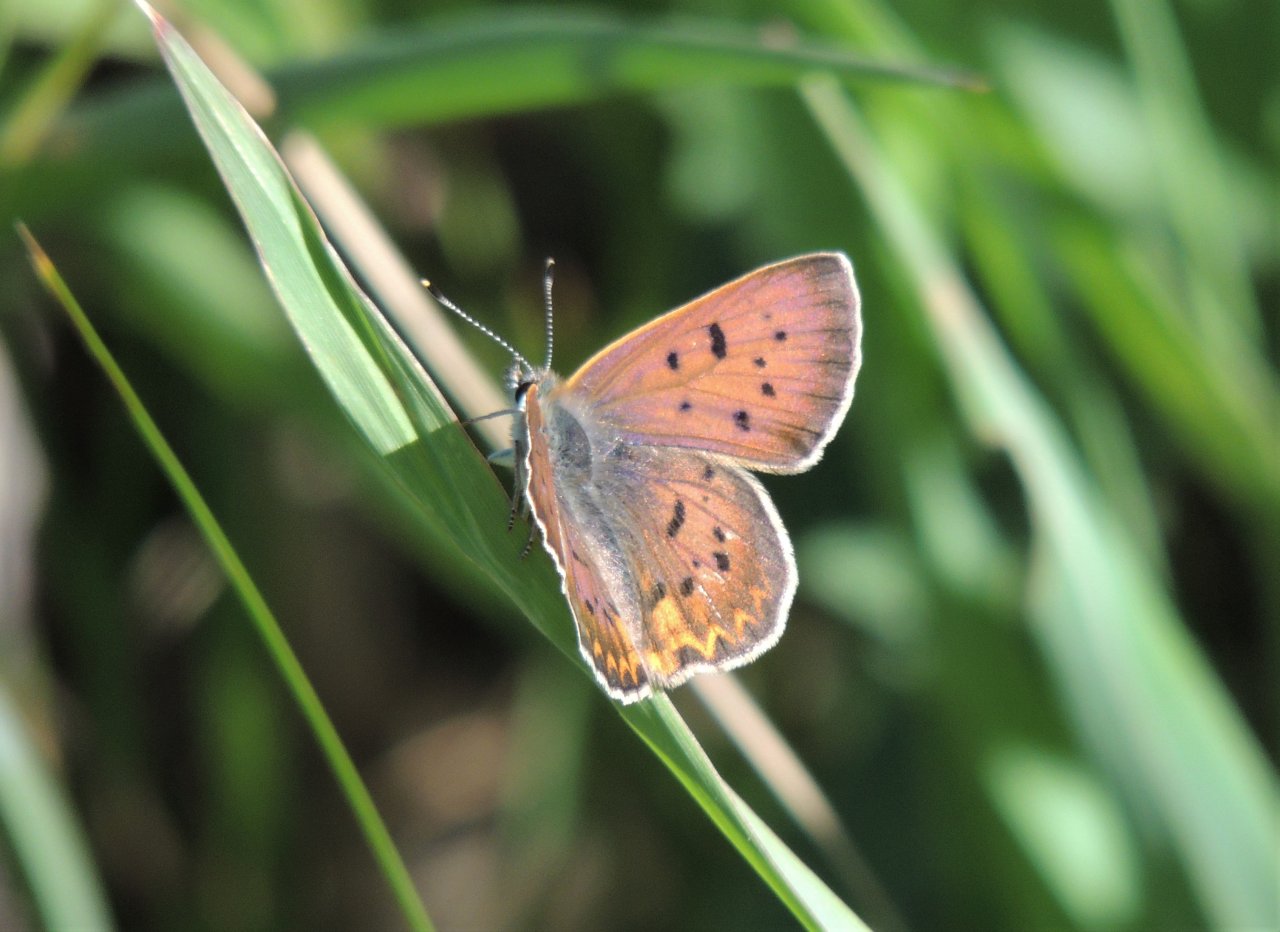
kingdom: Animalia
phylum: Arthropoda
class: Insecta
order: Lepidoptera
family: Sesiidae
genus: Sesia
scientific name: Sesia Lycaena helloides
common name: Purplish Copper
